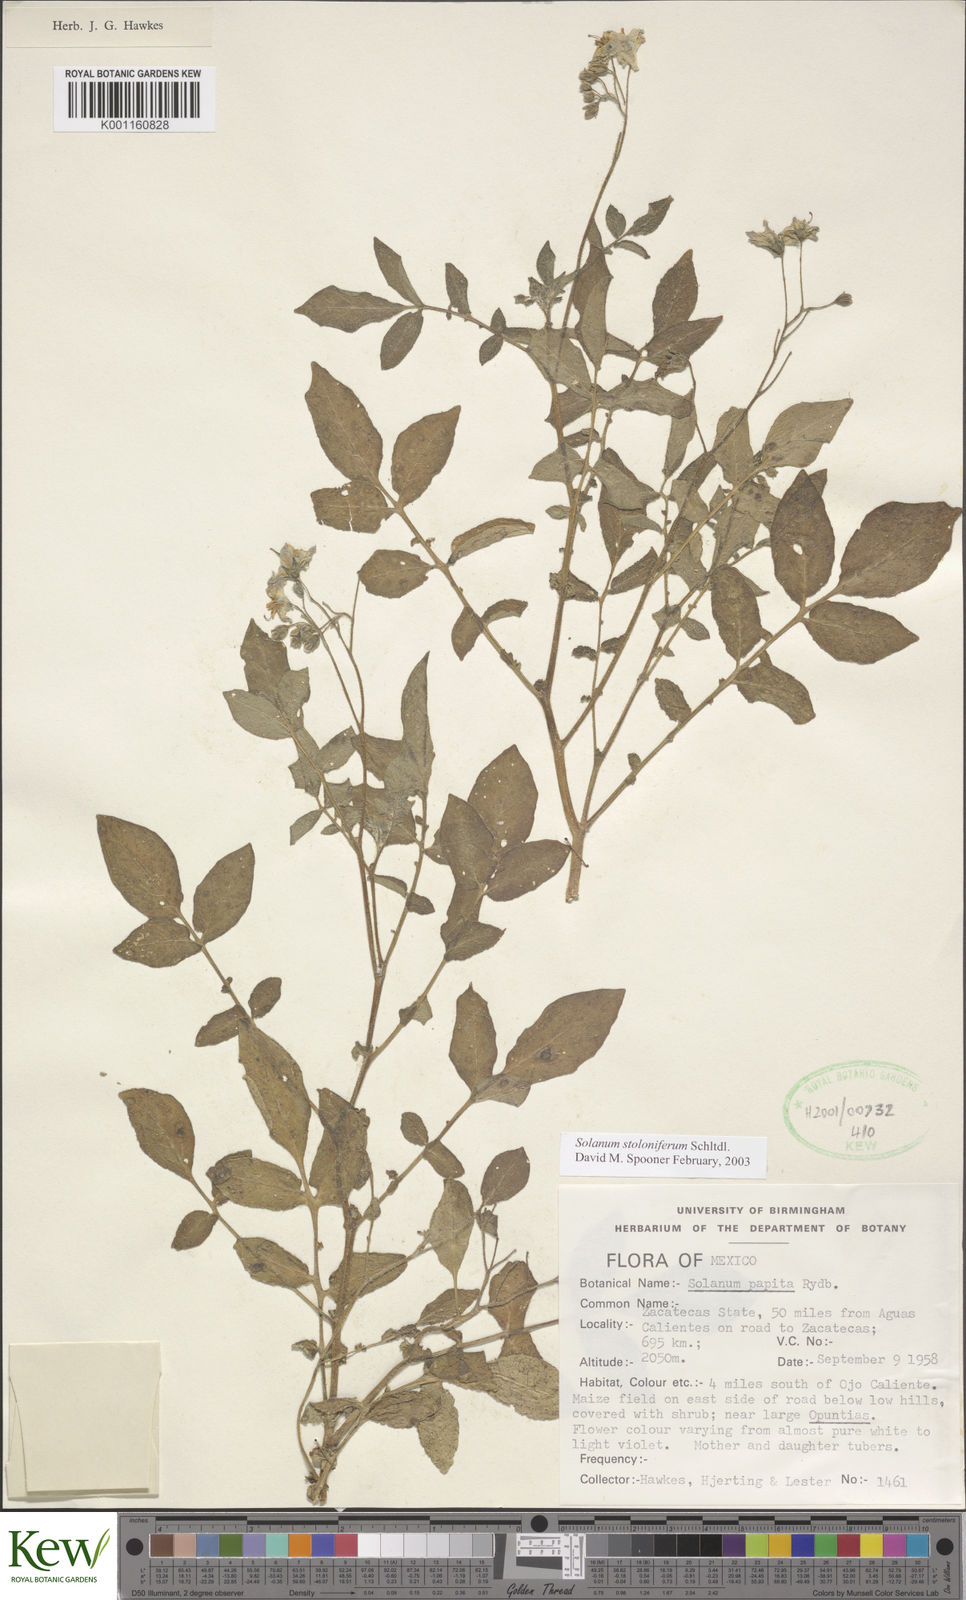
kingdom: Plantae
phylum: Tracheophyta
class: Magnoliopsida
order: Solanales
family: Solanaceae
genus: Solanum
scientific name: Solanum stoloniferum
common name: Fendler's nighshade
